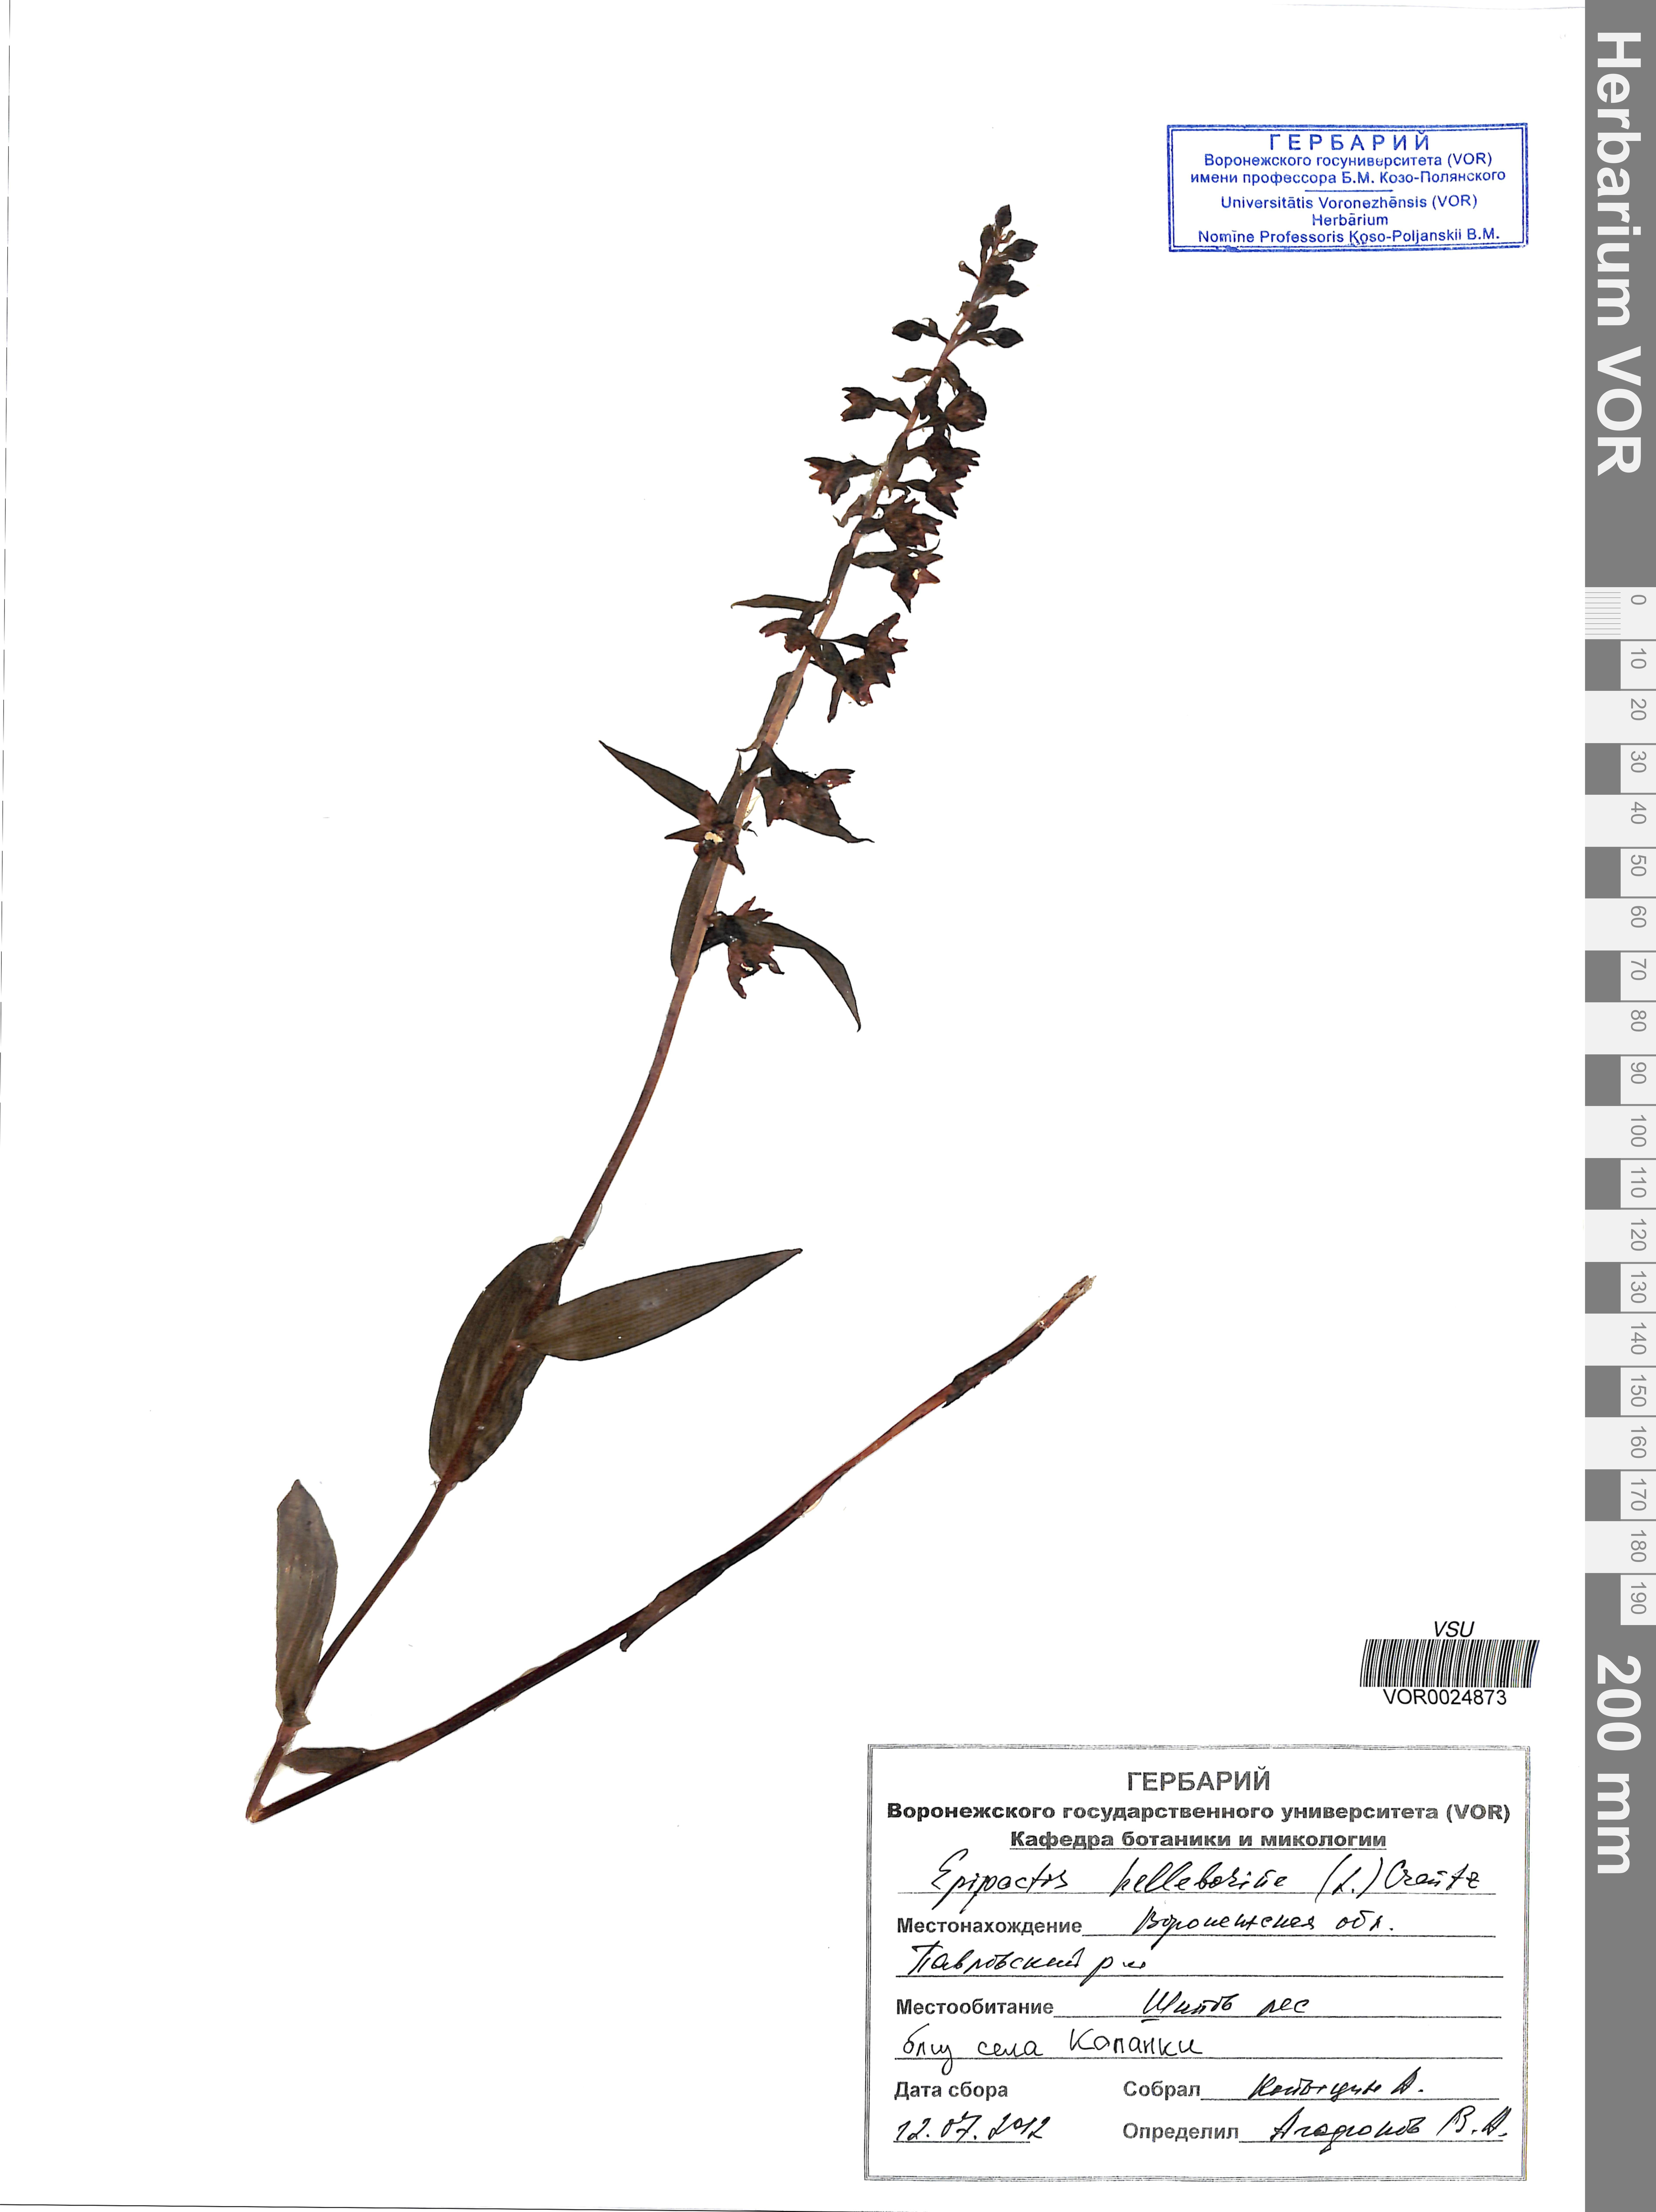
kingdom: Plantae
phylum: Tracheophyta
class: Liliopsida
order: Asparagales
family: Orchidaceae
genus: Epipactis
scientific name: Epipactis helleborine
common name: Broad-leaved helleborine
